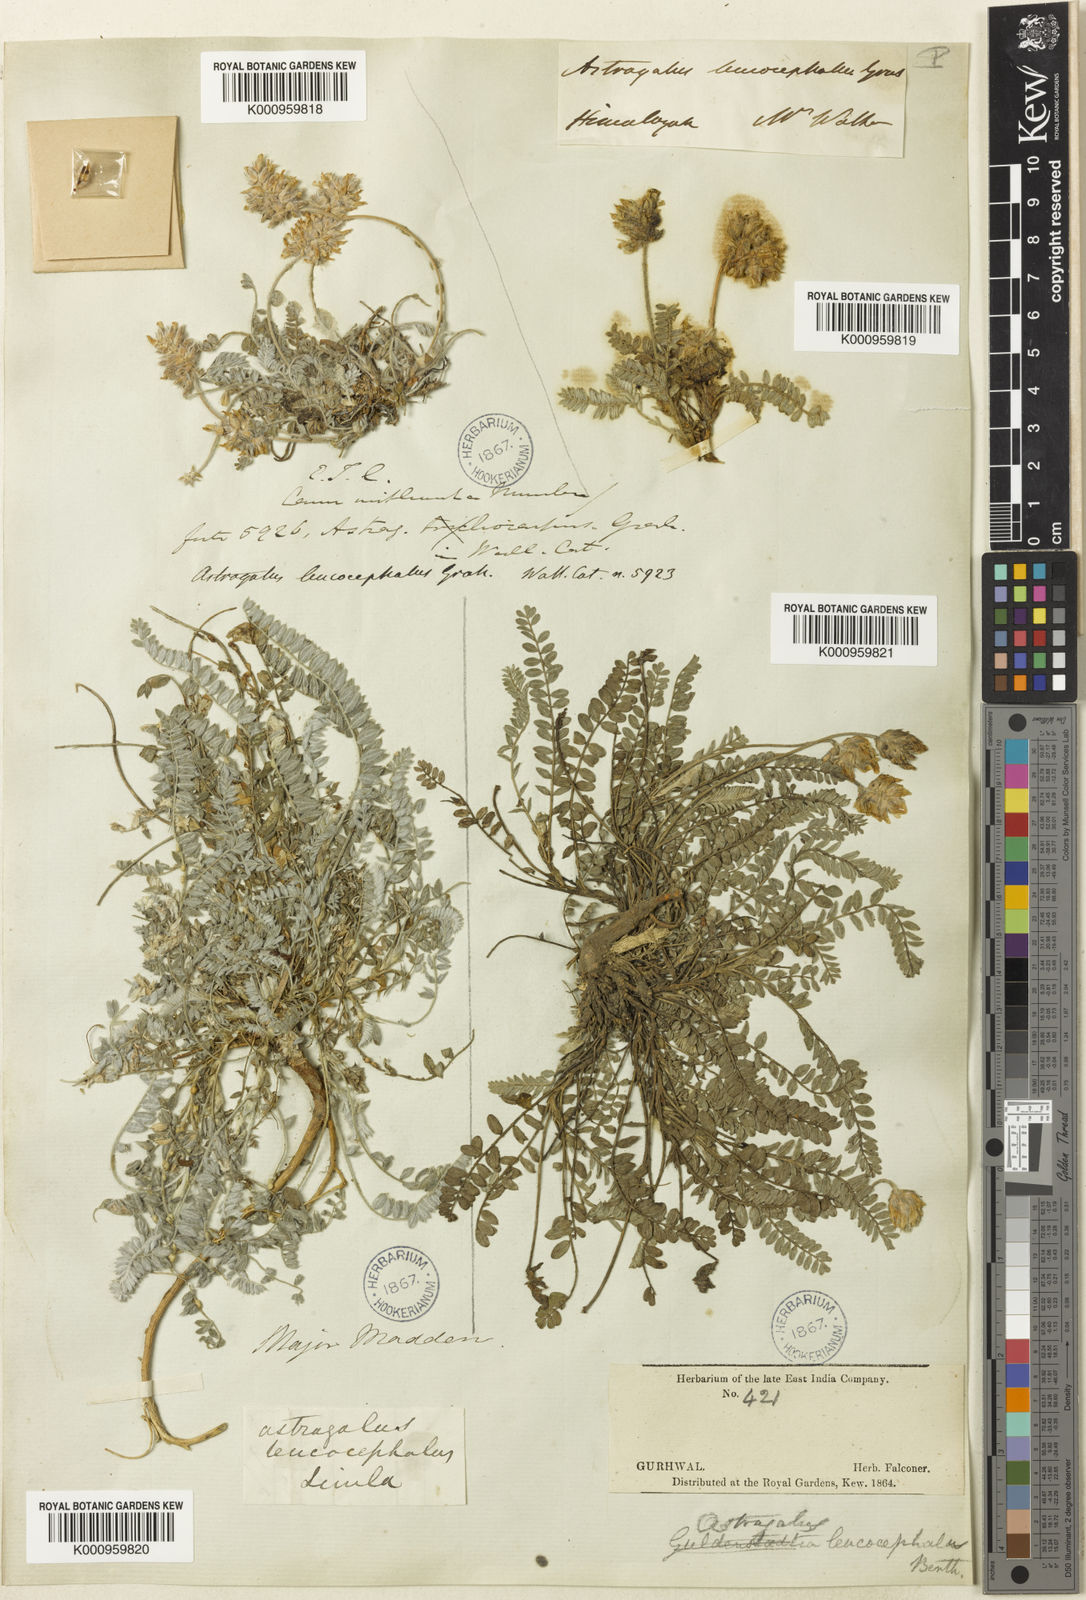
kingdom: Plantae
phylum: Tracheophyta
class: Magnoliopsida
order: Fabales
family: Fabaceae
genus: Astragalus
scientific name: Astragalus
